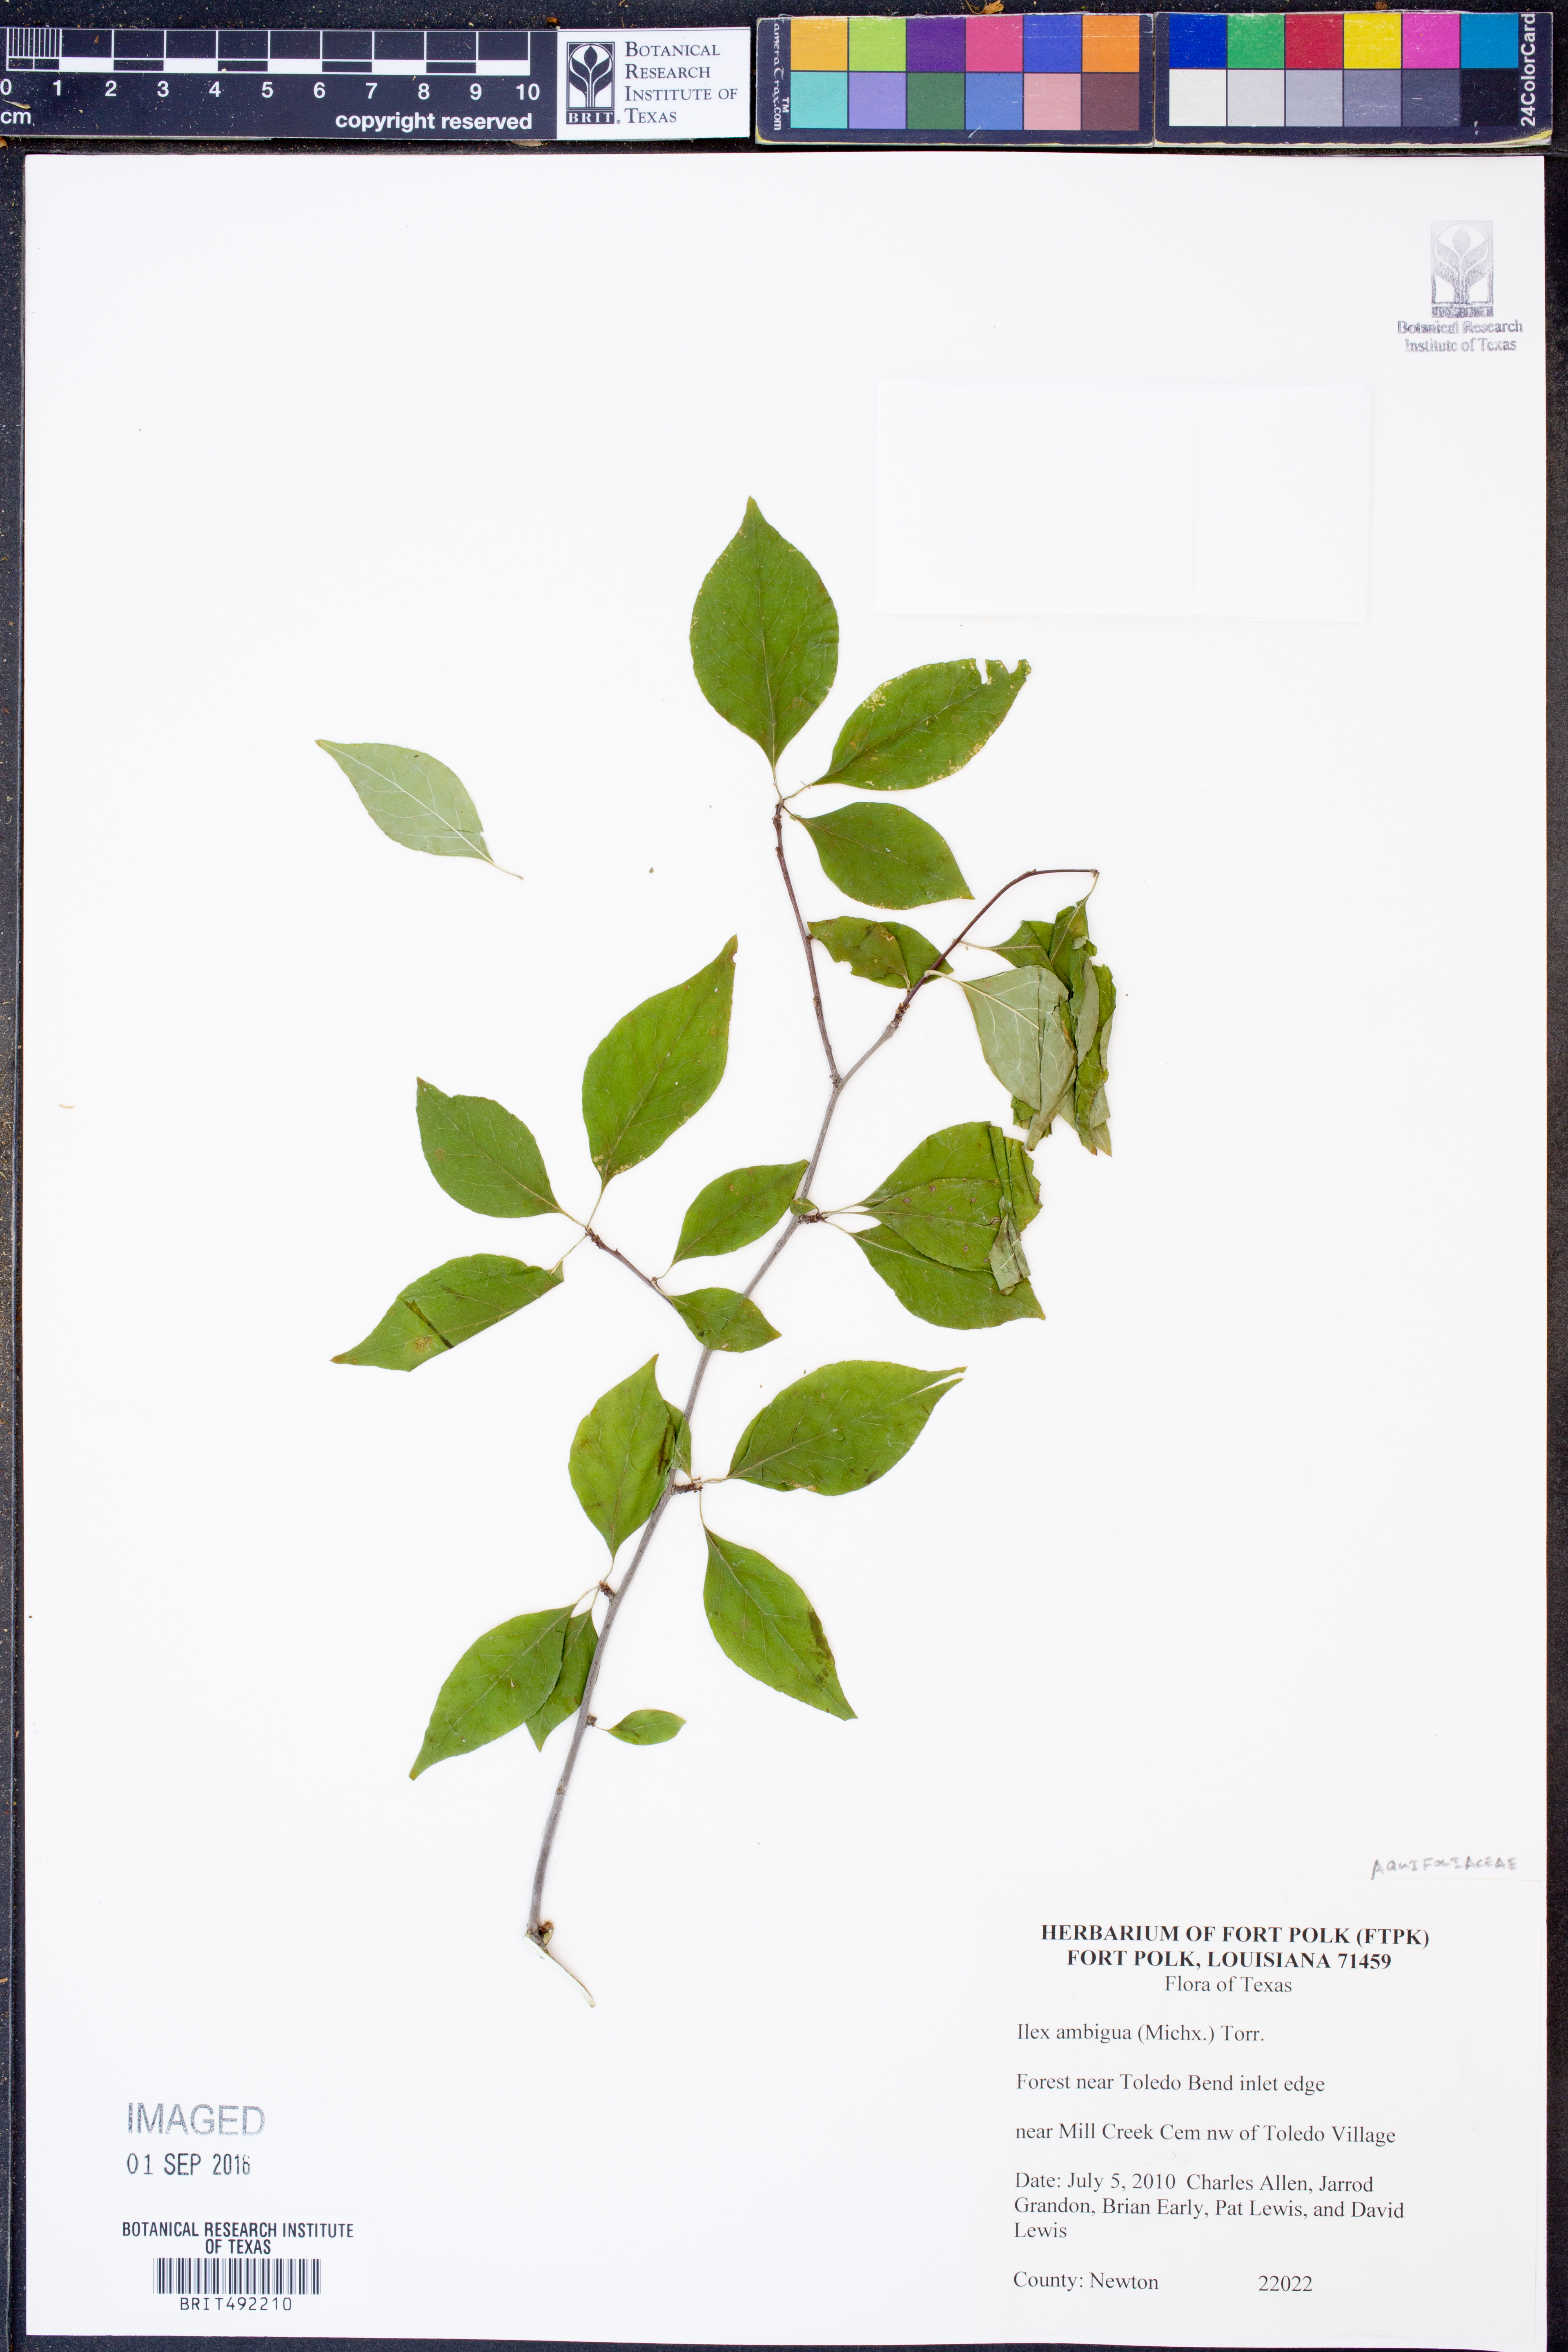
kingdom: Plantae
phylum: Tracheophyta
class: Magnoliopsida
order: Aquifoliales
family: Aquifoliaceae
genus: Ilex
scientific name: Ilex ambigua
